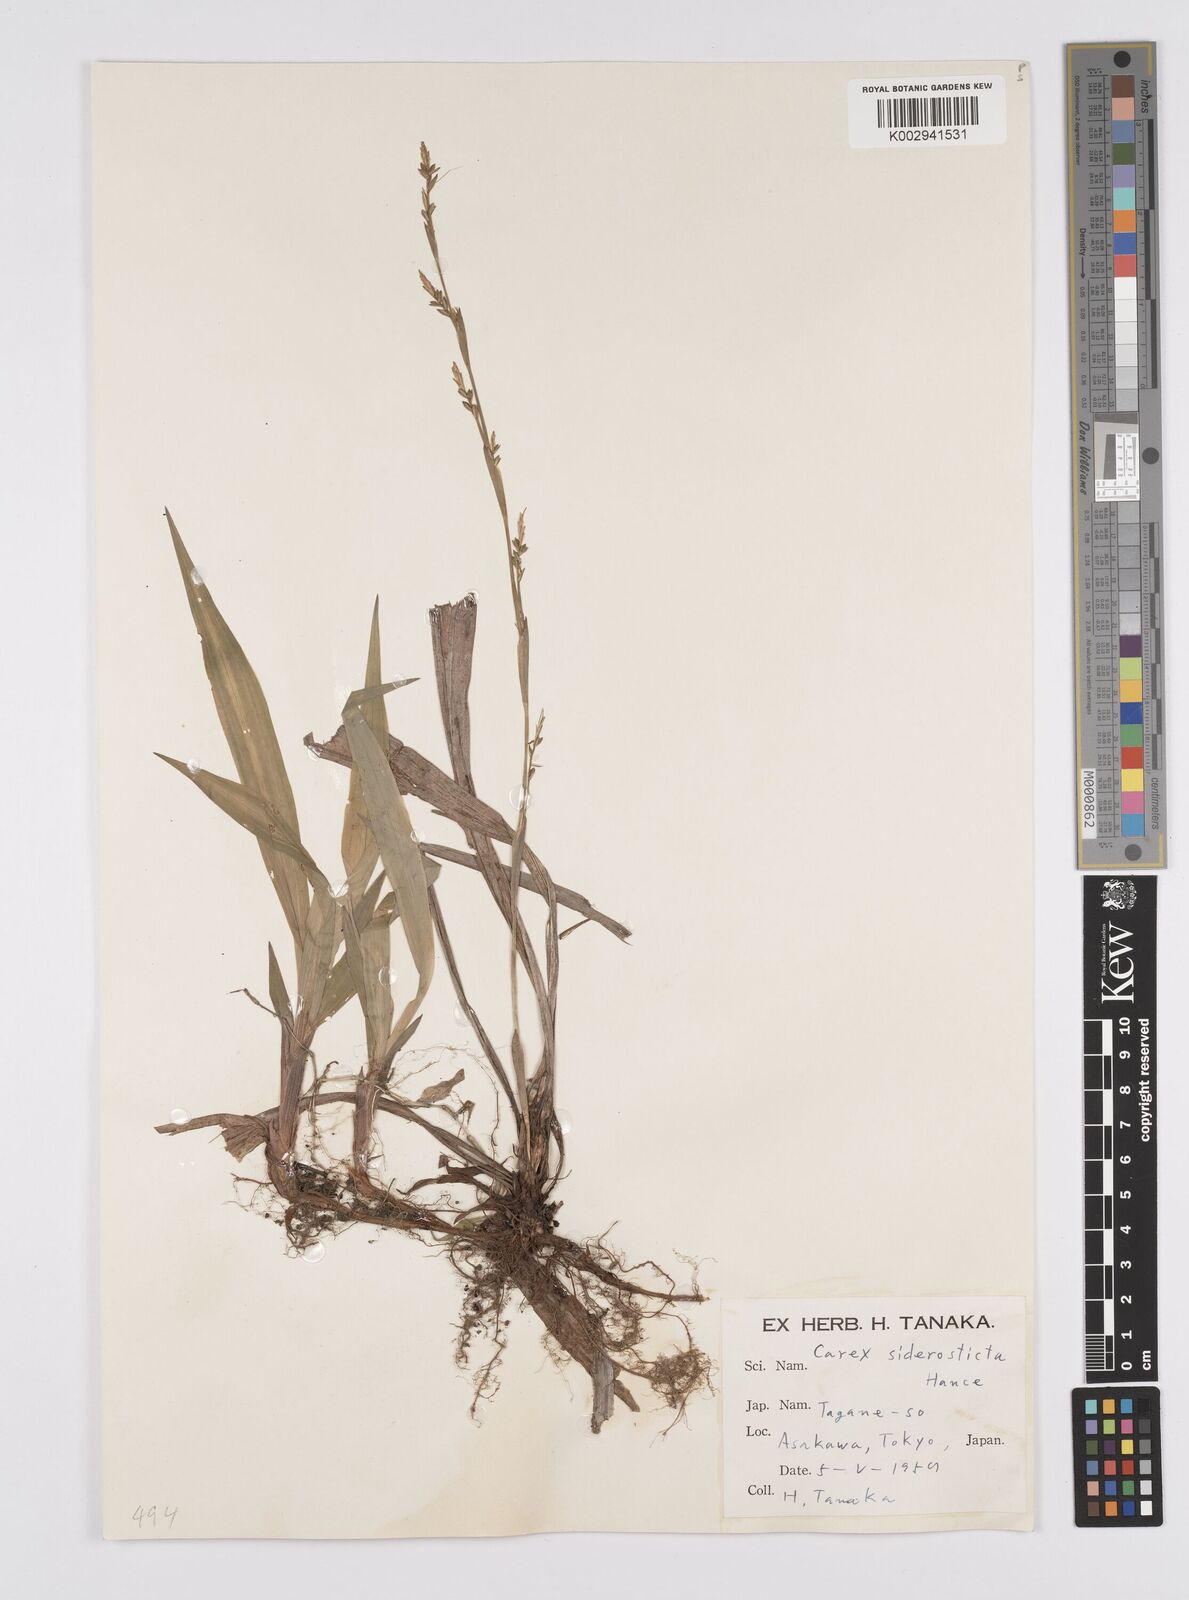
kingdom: Plantae
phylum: Tracheophyta
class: Liliopsida
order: Poales
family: Cyperaceae
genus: Carex
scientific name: Carex siderosticta
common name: Broadleaf sedge
